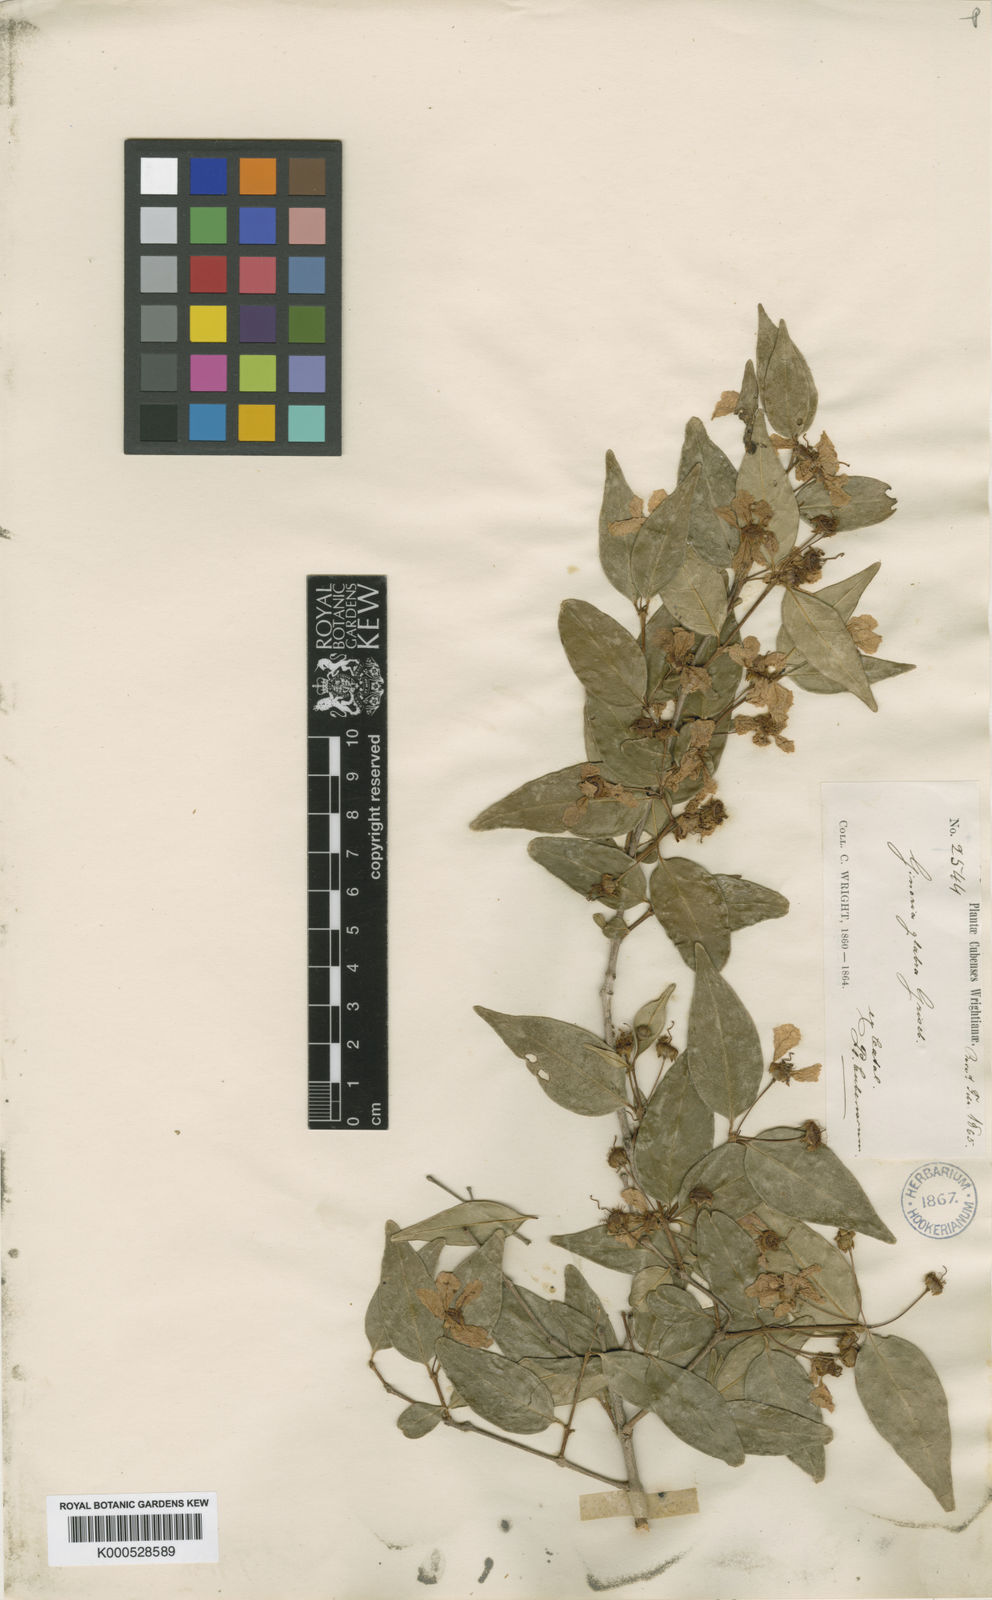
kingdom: Plantae
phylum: Tracheophyta
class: Magnoliopsida
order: Myrtales
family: Lythraceae
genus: Ginoria
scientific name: Ginoria glabra
